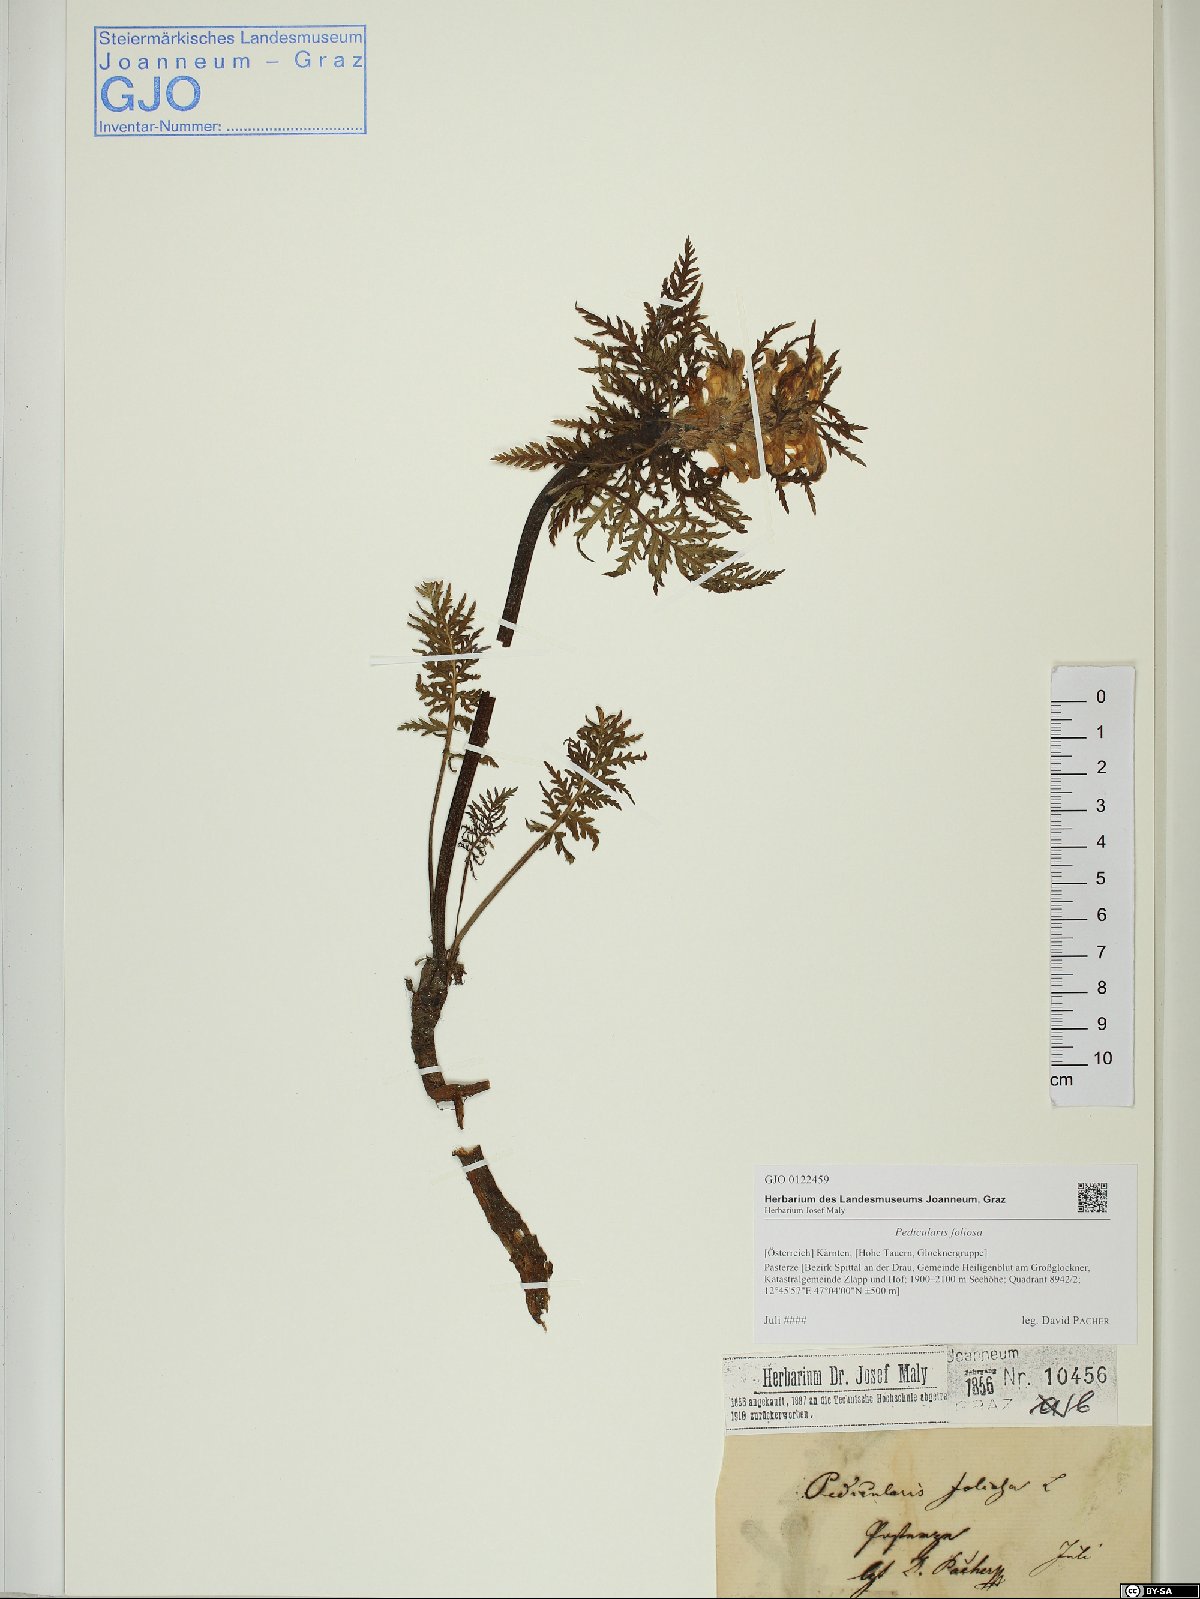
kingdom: Plantae
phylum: Tracheophyta
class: Magnoliopsida
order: Lamiales
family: Orobanchaceae
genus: Pedicularis
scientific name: Pedicularis foliosa
